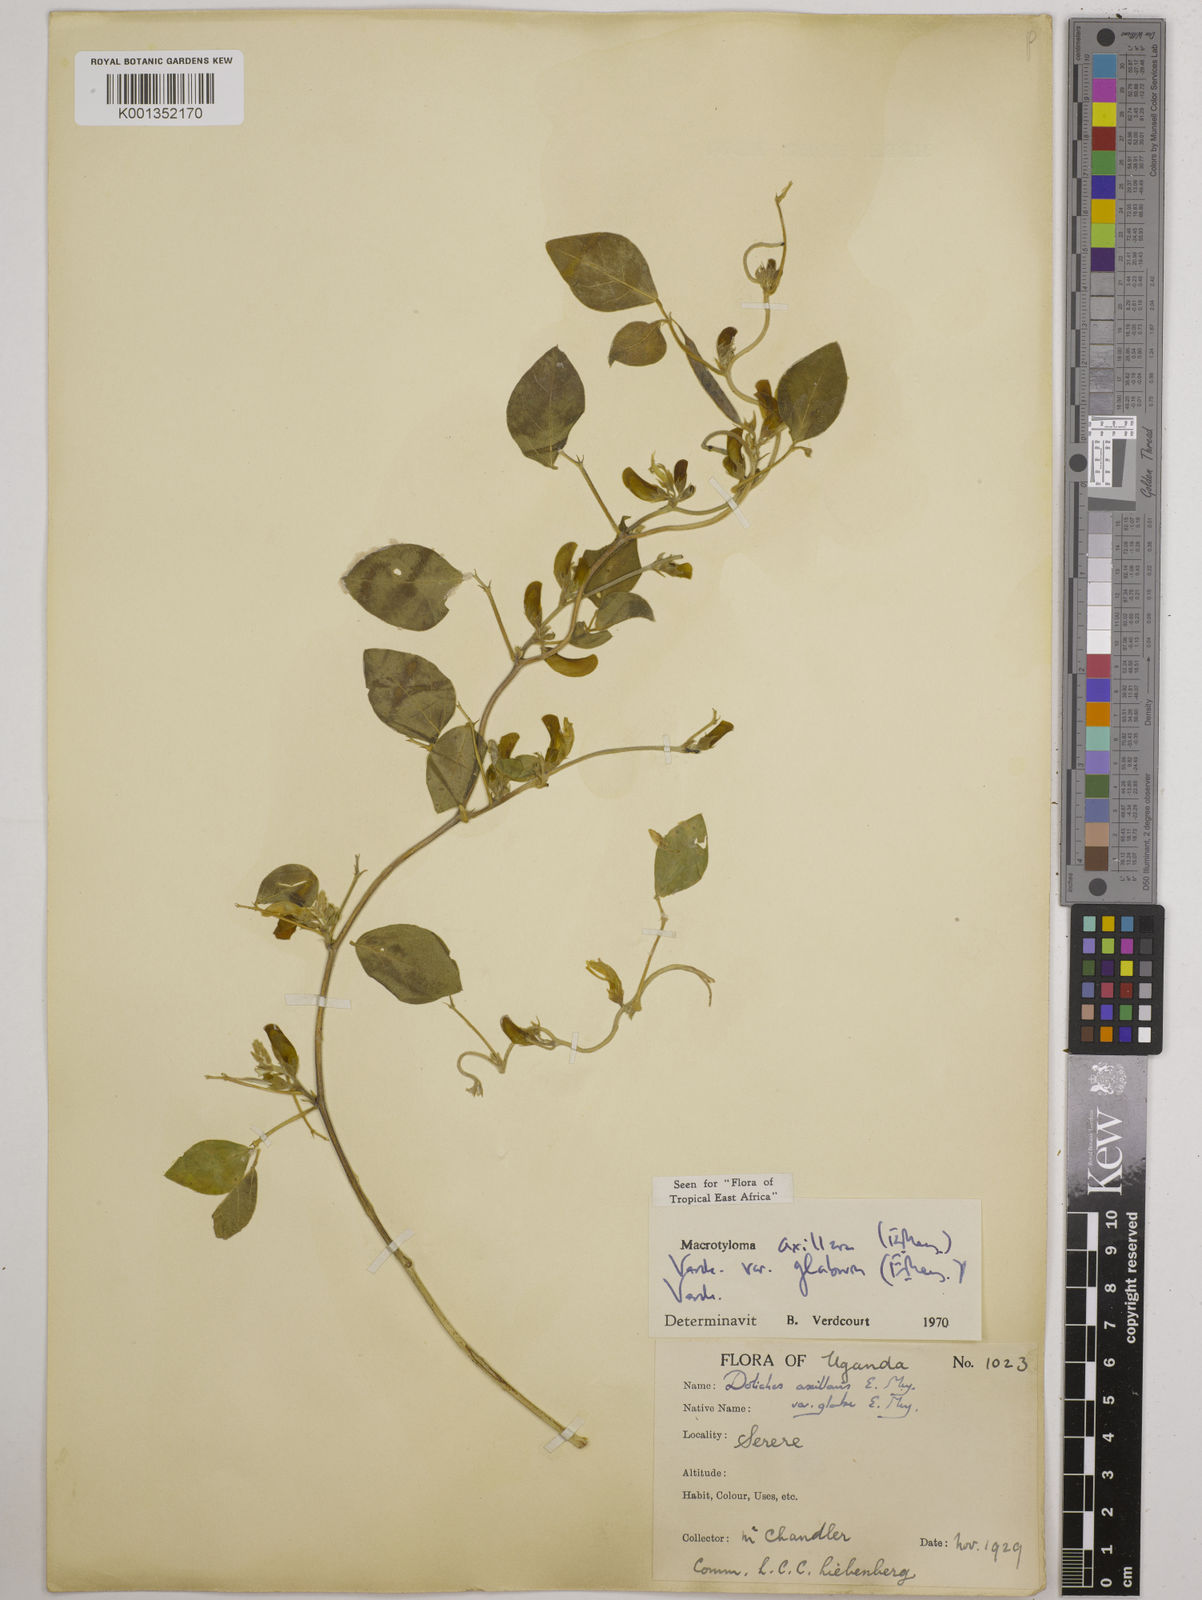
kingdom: Plantae
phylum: Tracheophyta
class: Magnoliopsida
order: Fabales
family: Fabaceae
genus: Macrotyloma
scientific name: Macrotyloma
